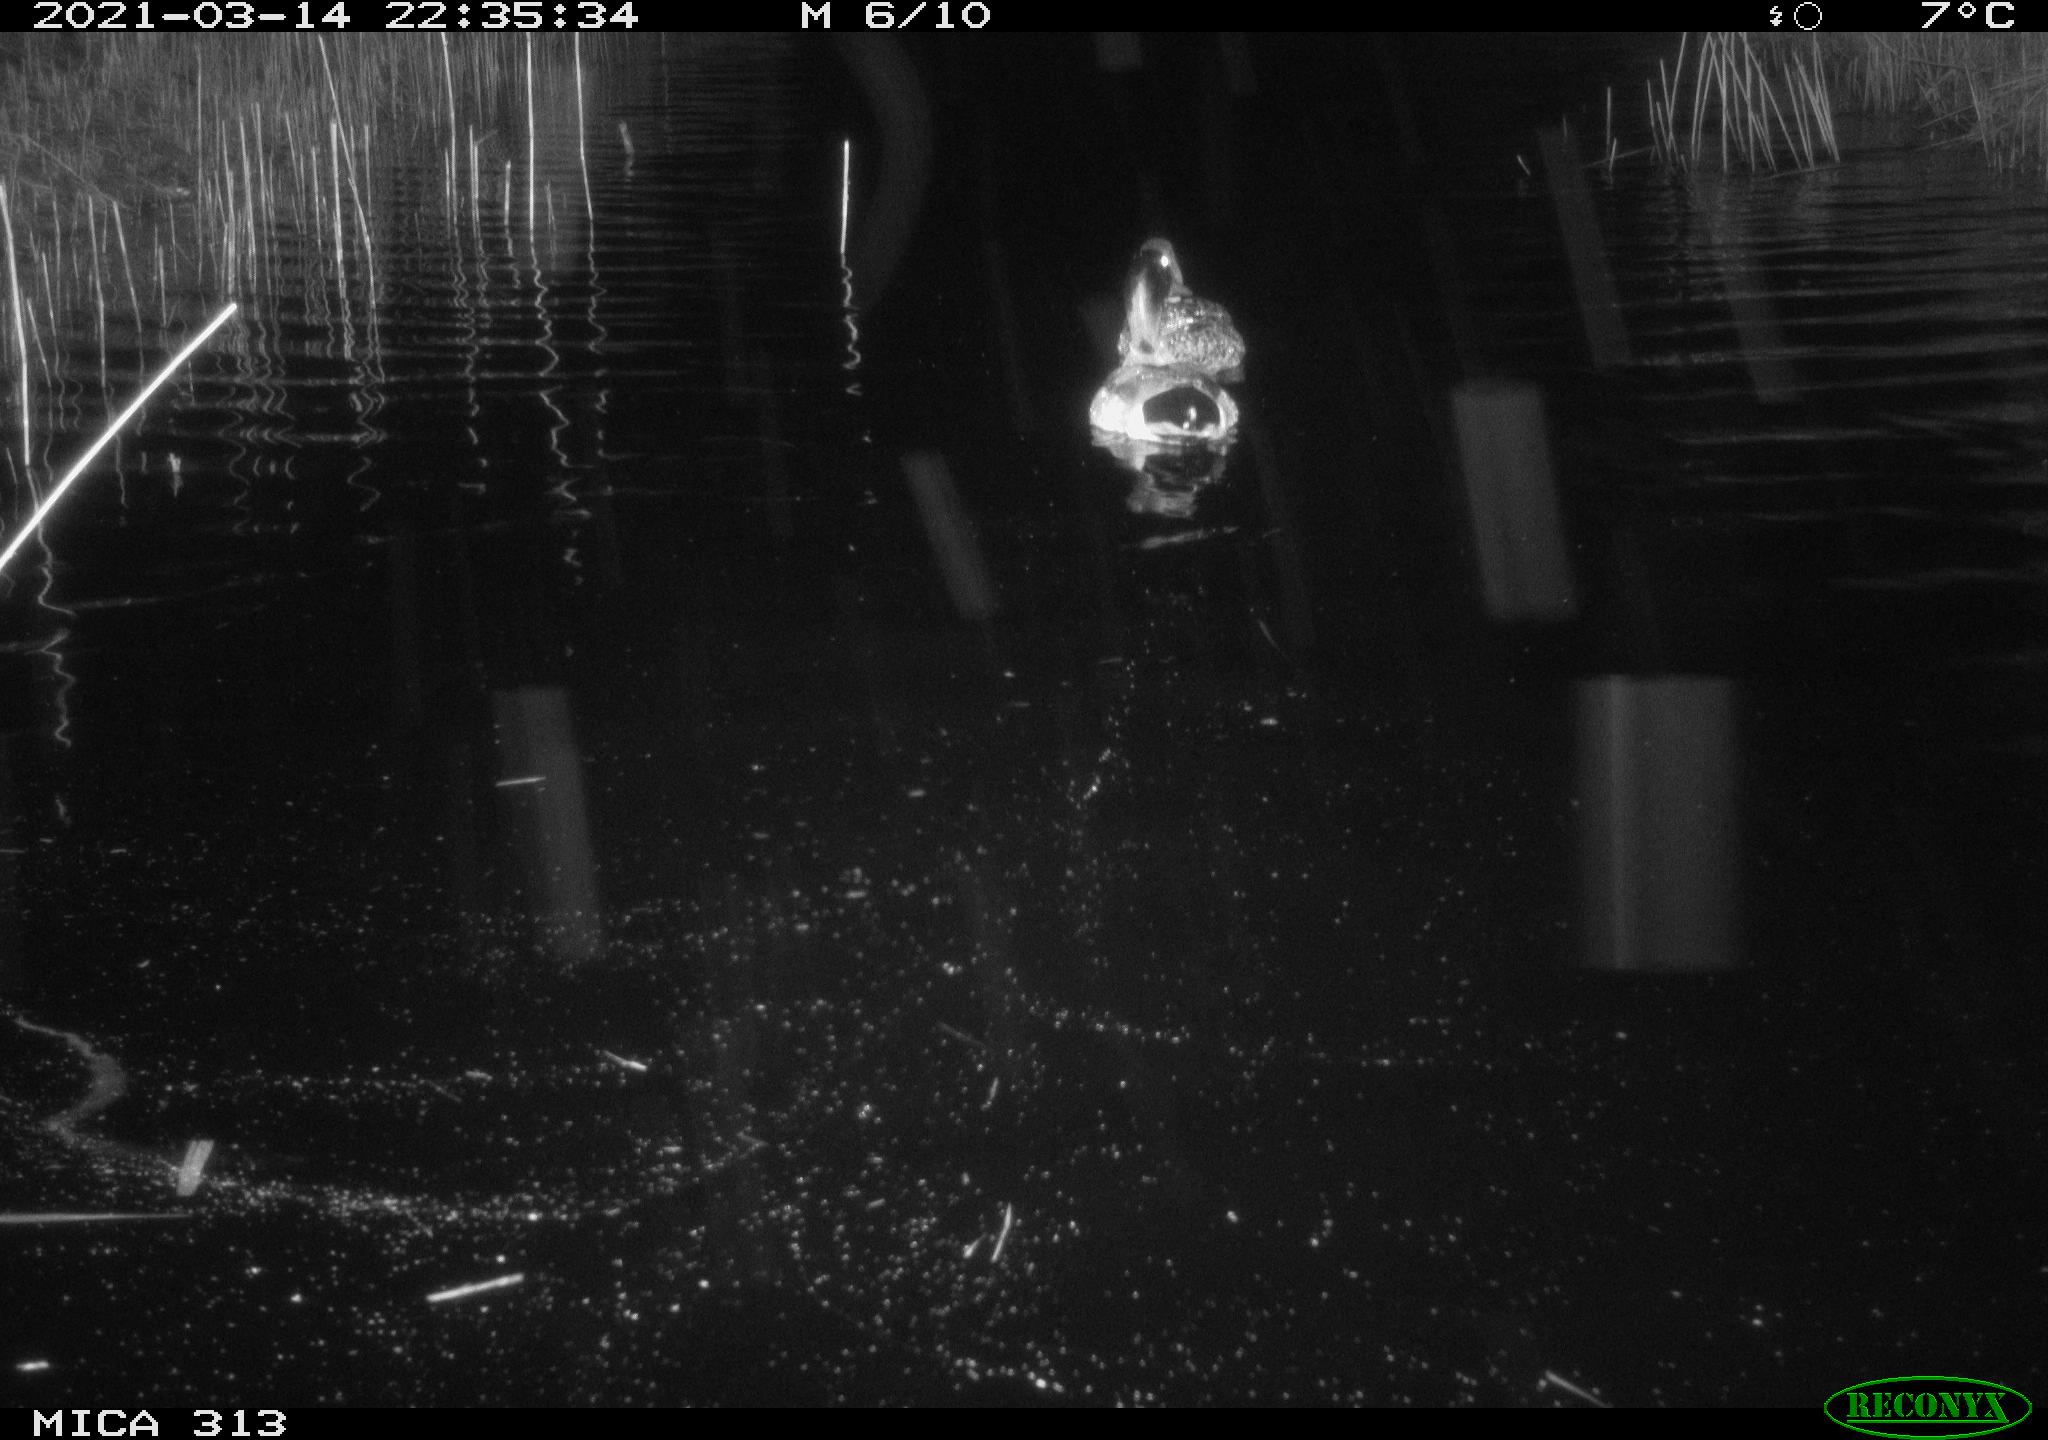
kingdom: Animalia
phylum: Chordata
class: Aves
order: Anseriformes
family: Anatidae
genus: Anas
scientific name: Anas platyrhynchos
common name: Mallard
